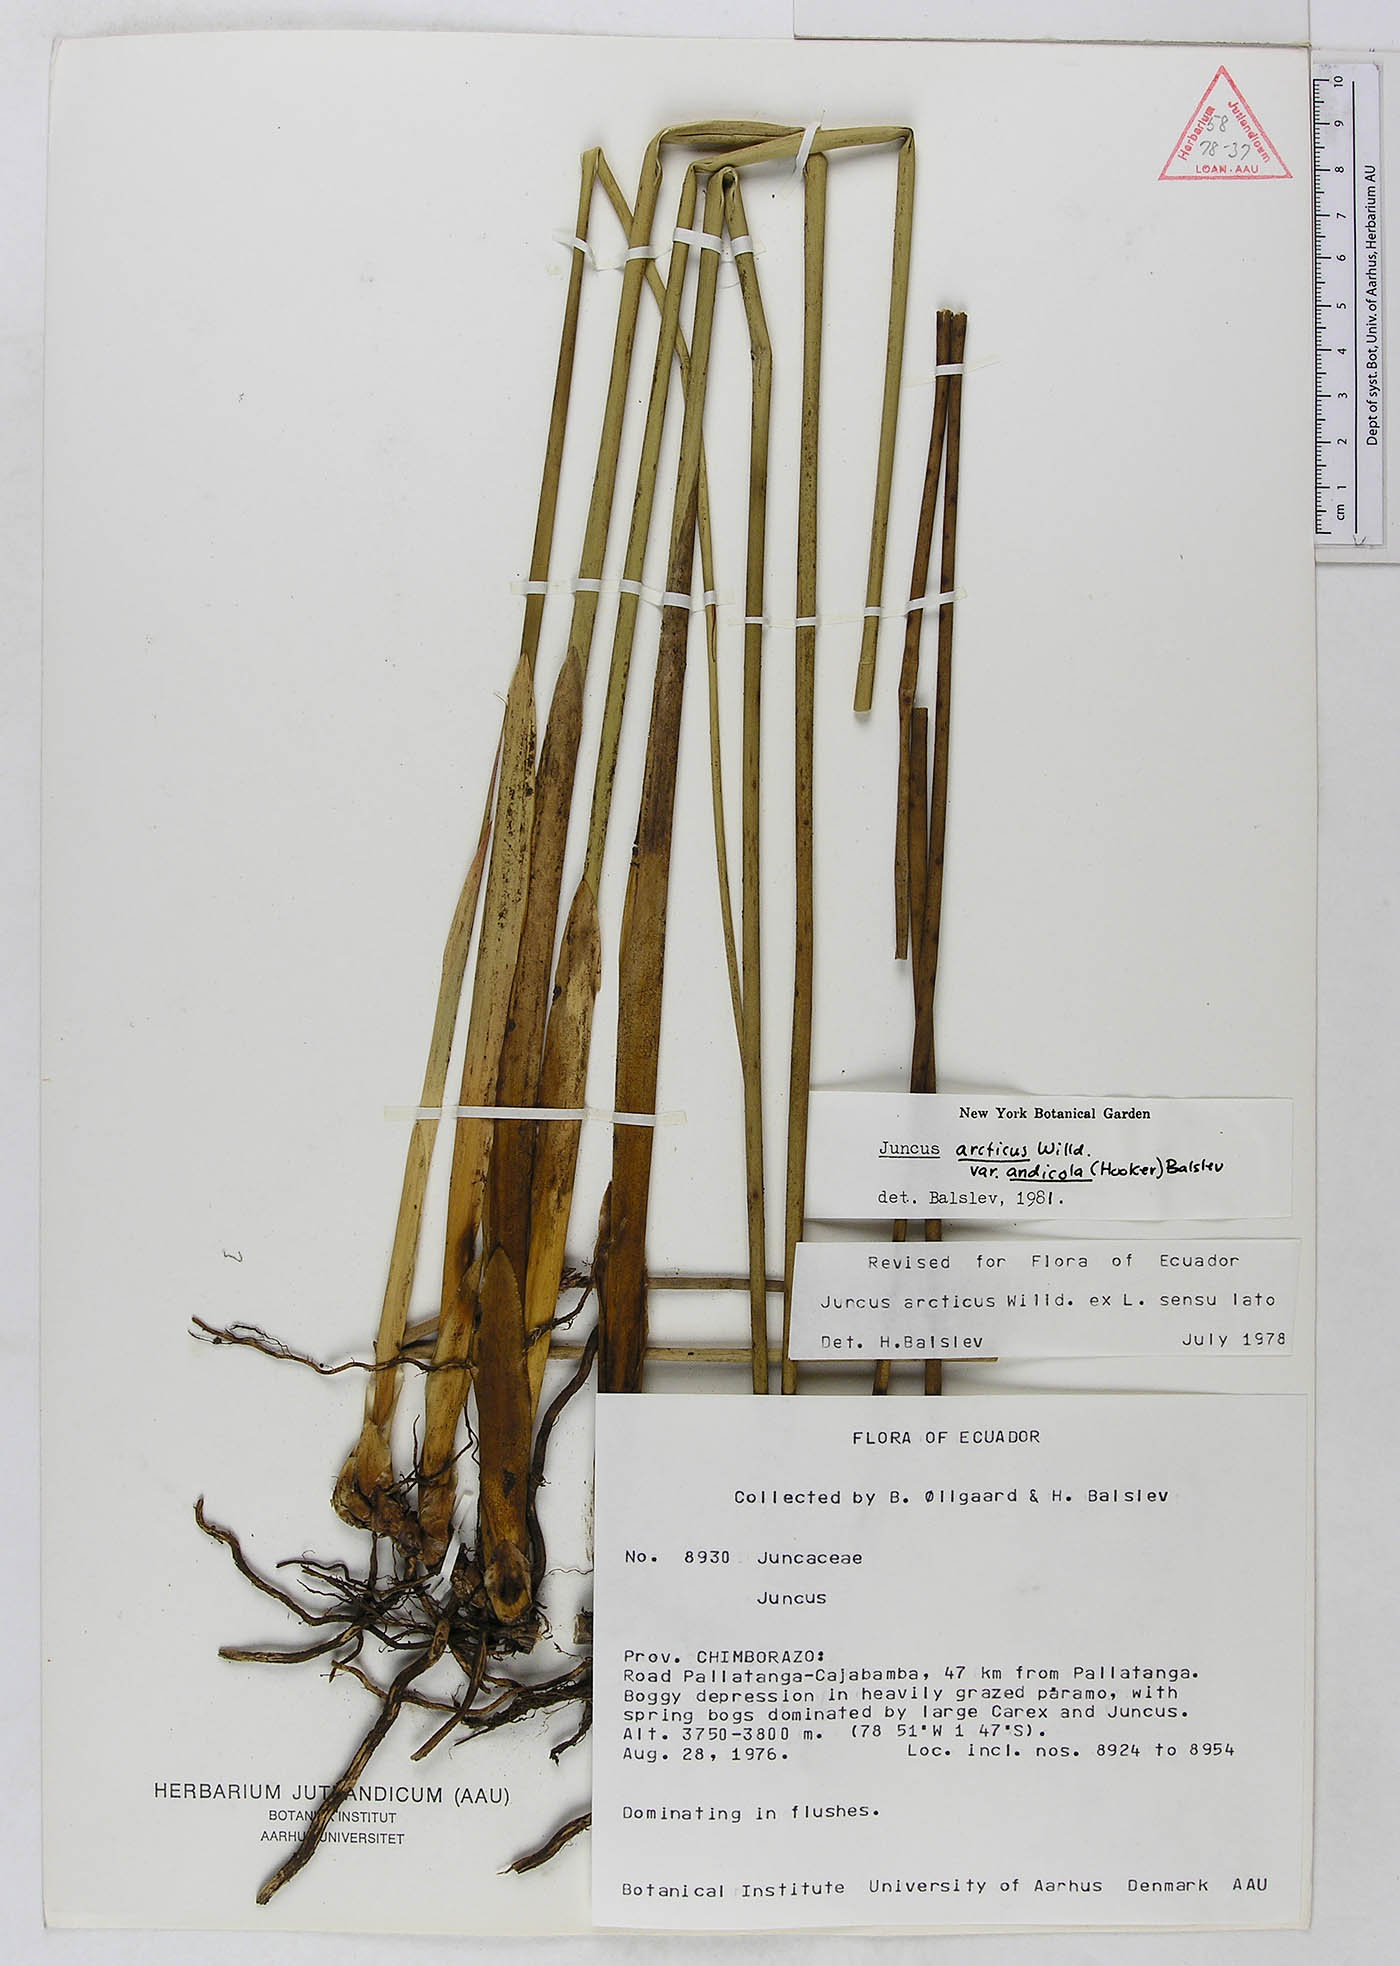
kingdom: Plantae
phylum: Tracheophyta
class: Liliopsida
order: Poales
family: Juncaceae
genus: Juncus
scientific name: Juncus balticus
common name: Baltic rush
